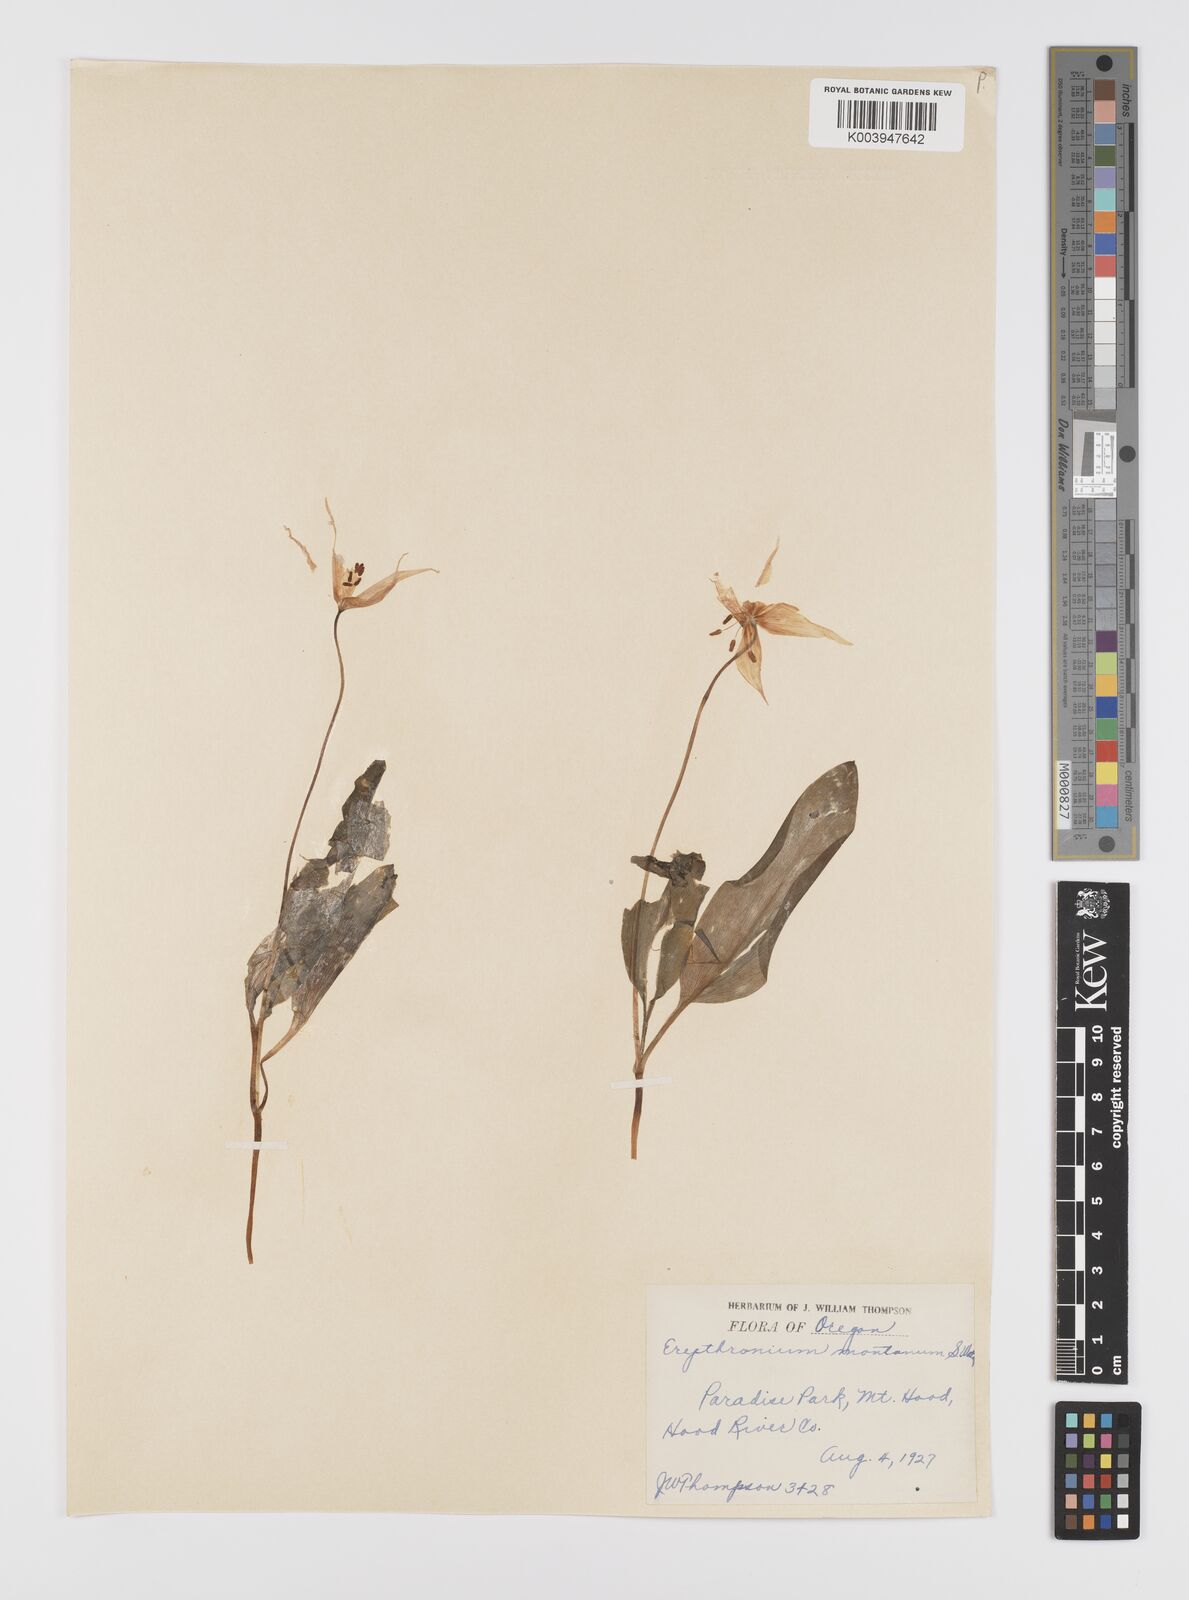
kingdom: Plantae
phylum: Tracheophyta
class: Liliopsida
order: Liliales
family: Liliaceae
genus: Erythronium
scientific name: Erythronium montanum
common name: Avalanche lily
